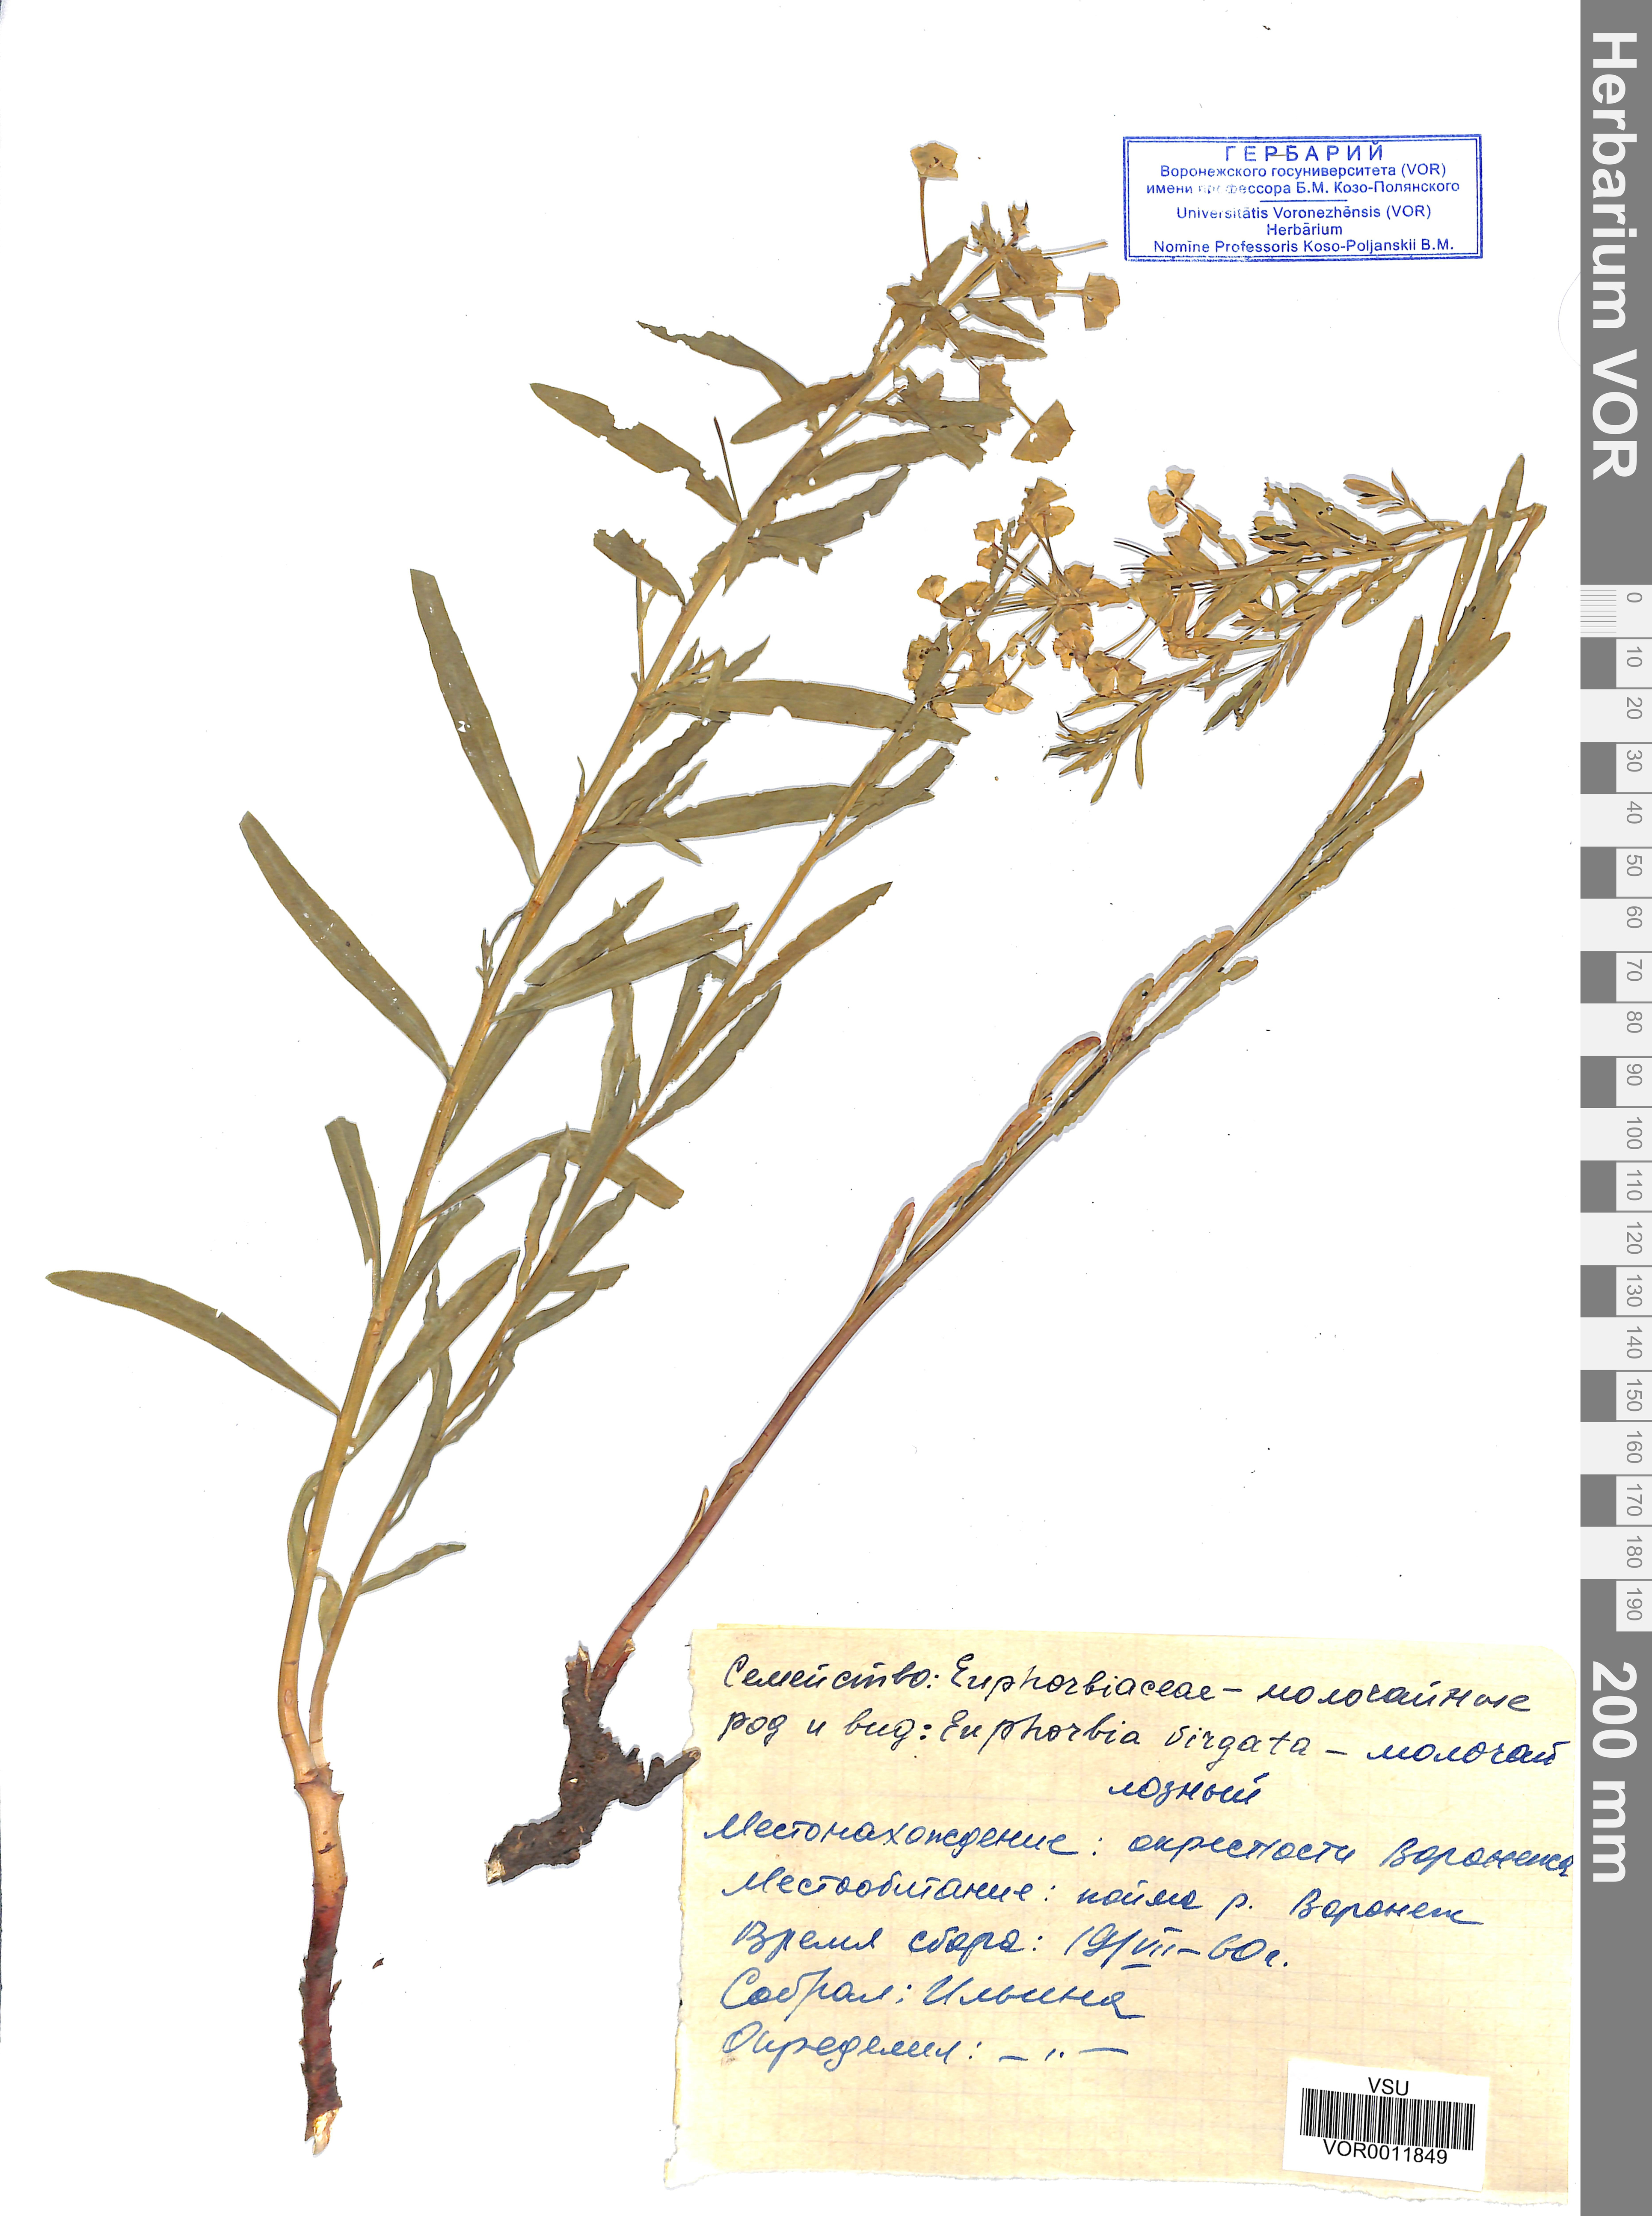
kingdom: Plantae
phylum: Tracheophyta
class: Magnoliopsida
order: Malpighiales
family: Euphorbiaceae
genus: Euphorbia
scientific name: Euphorbia canariensis
